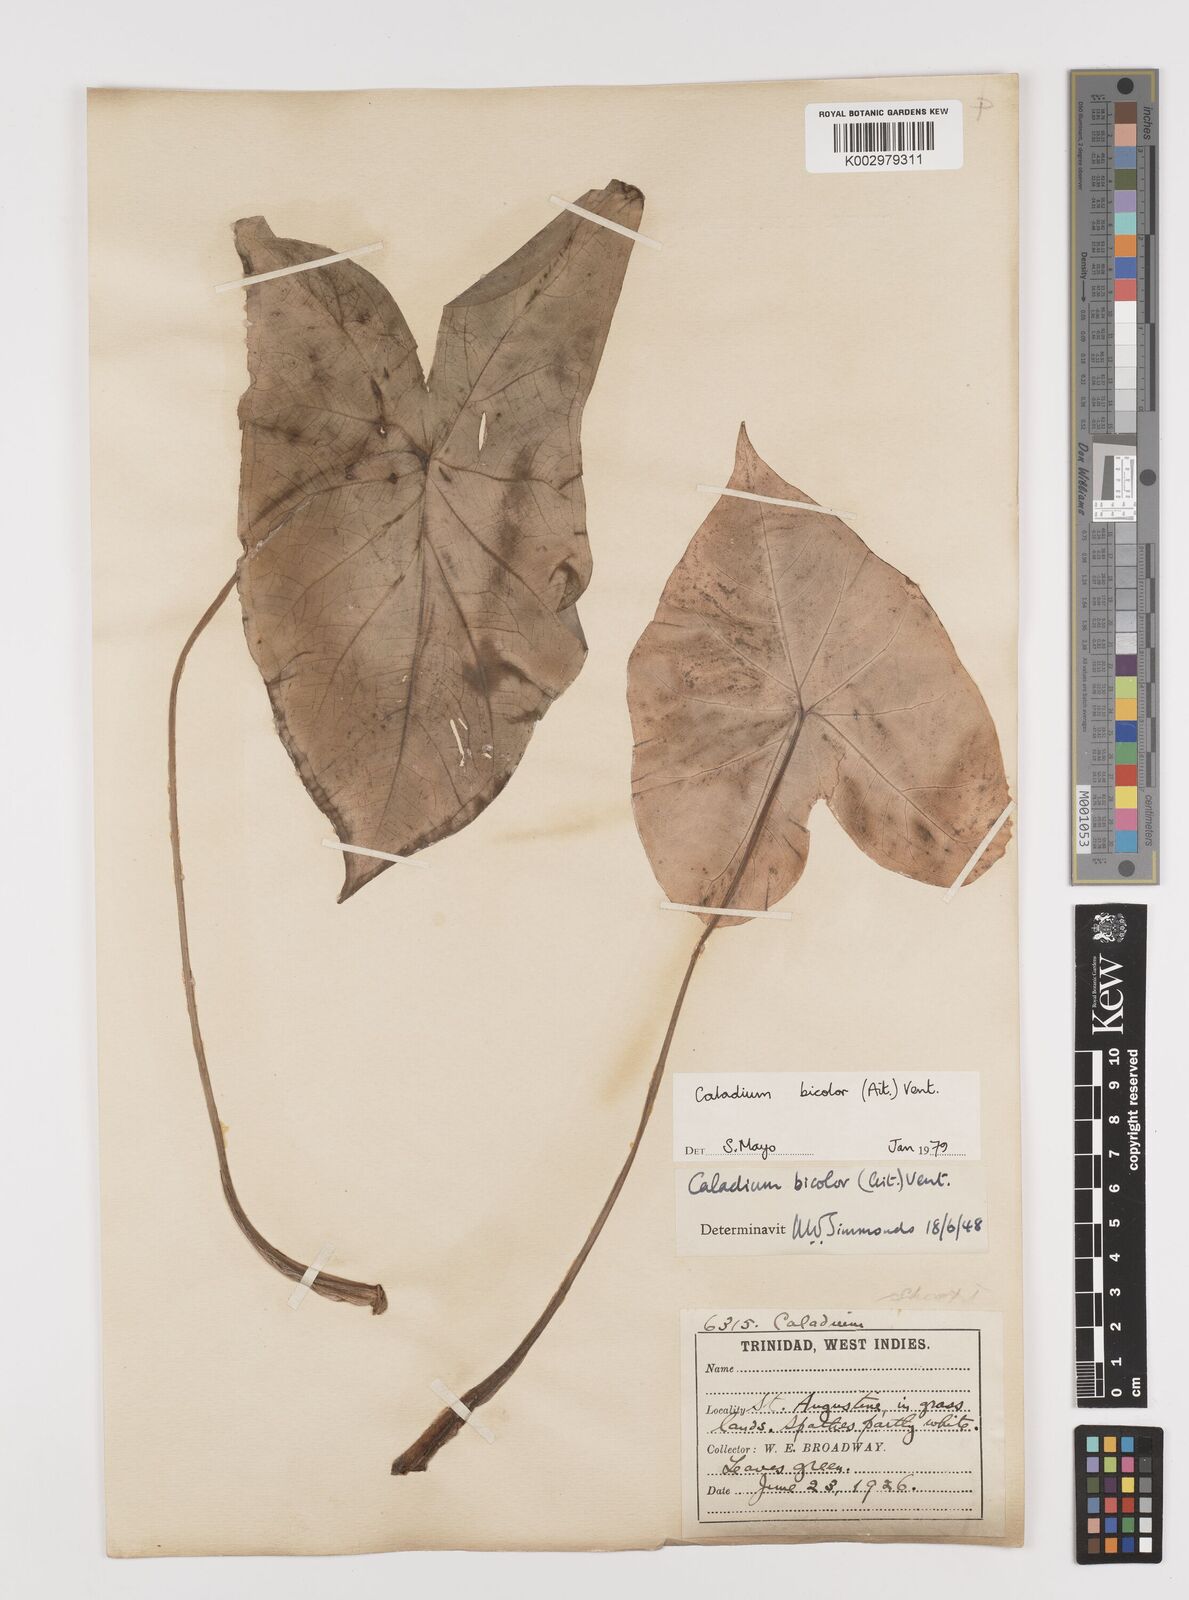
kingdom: Plantae
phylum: Tracheophyta
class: Liliopsida
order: Alismatales
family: Araceae
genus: Caladium
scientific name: Caladium bicolor
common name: Artist's pallet
